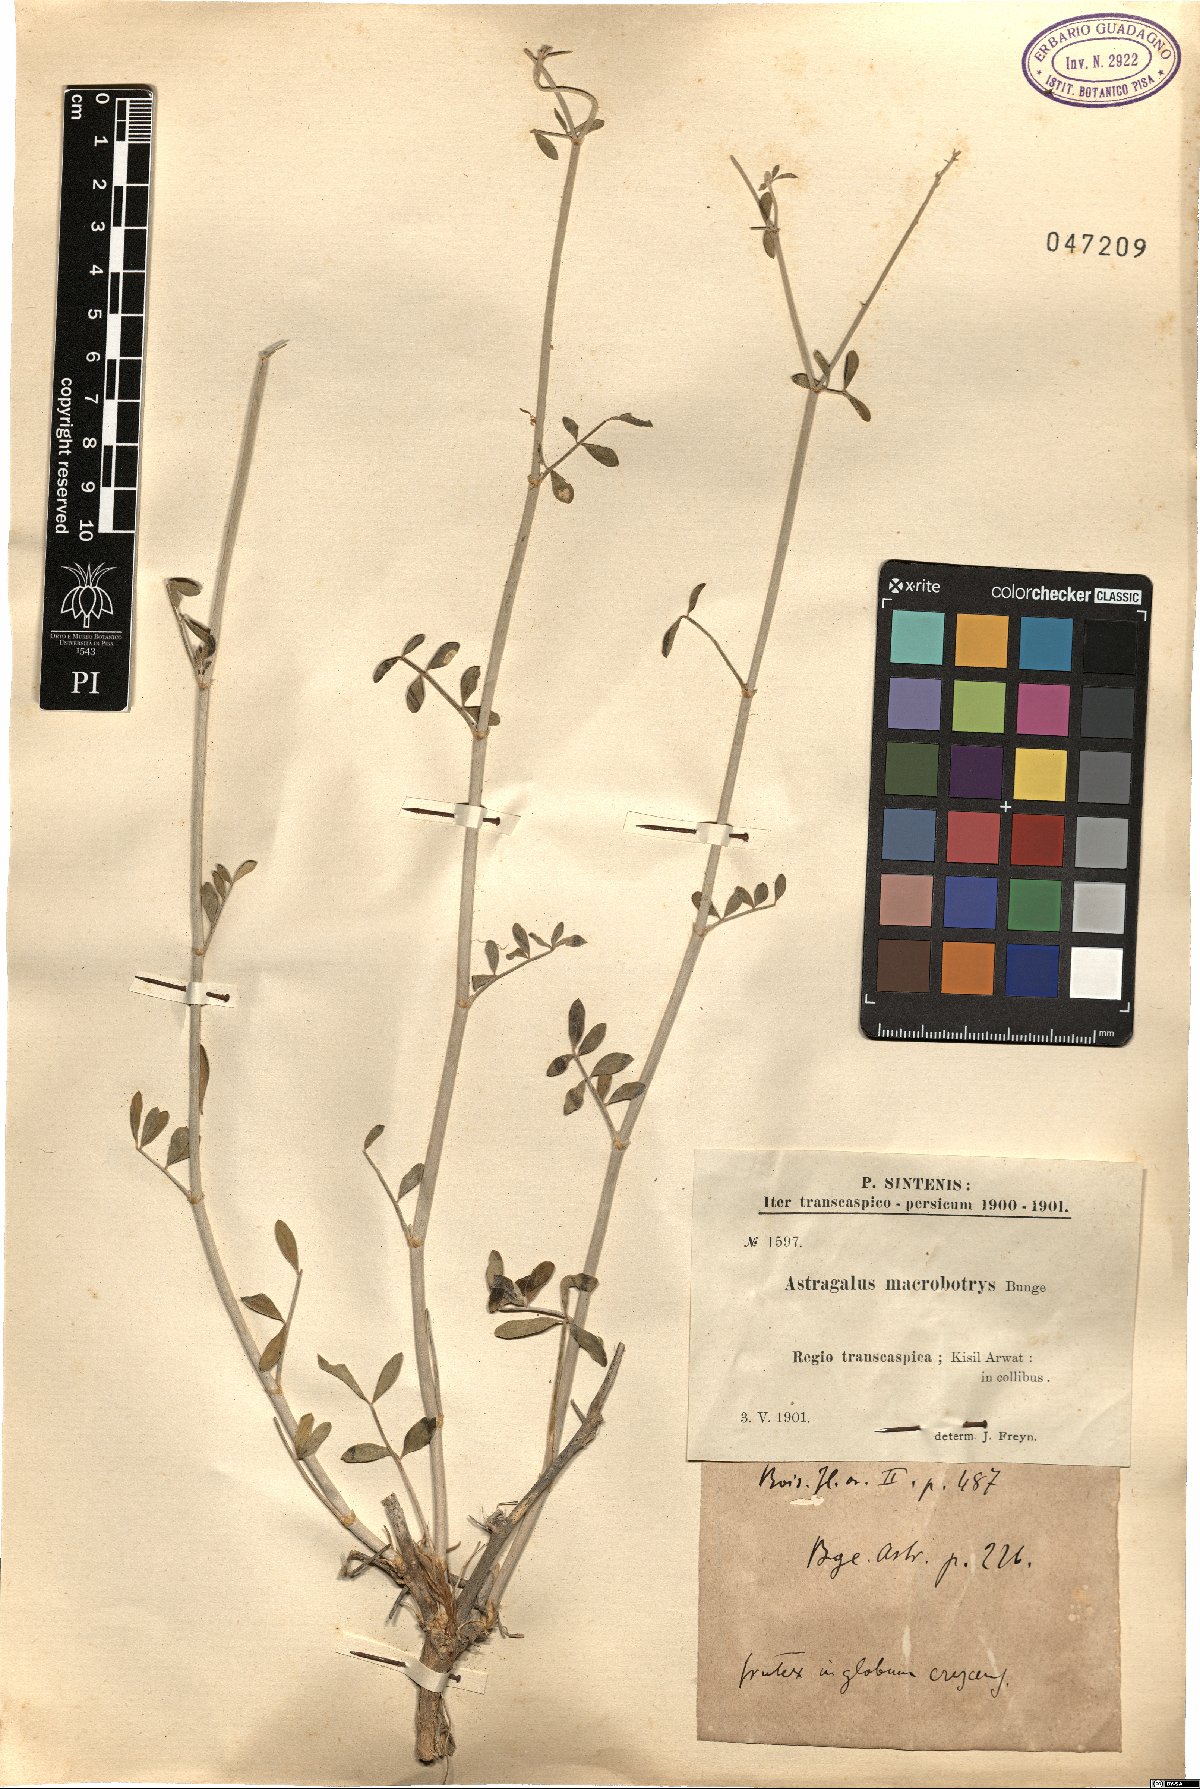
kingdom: Plantae
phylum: Tracheophyta
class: Magnoliopsida
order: Fabales
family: Fabaceae
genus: Astragalus
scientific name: Astragalus macrobotrys
